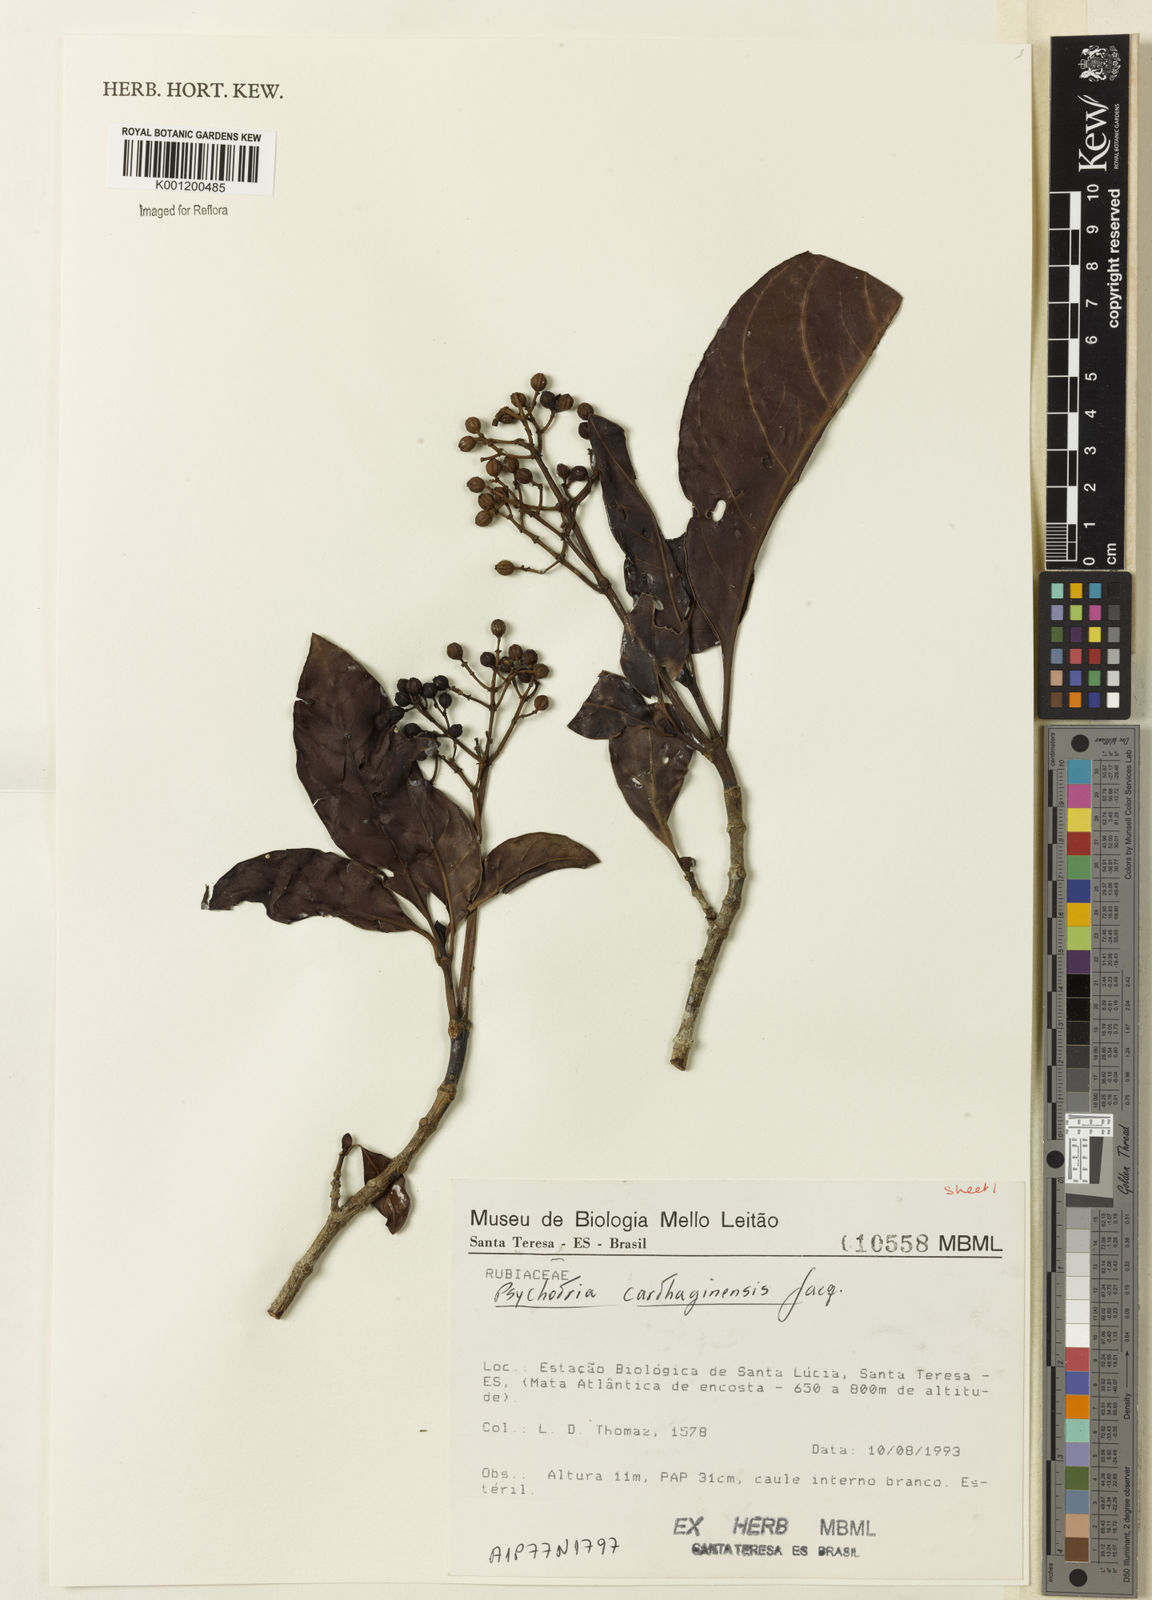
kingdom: Plantae
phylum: Tracheophyta
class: Magnoliopsida
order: Gentianales
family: Rubiaceae
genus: Psychotria
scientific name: Psychotria carthagenensis
